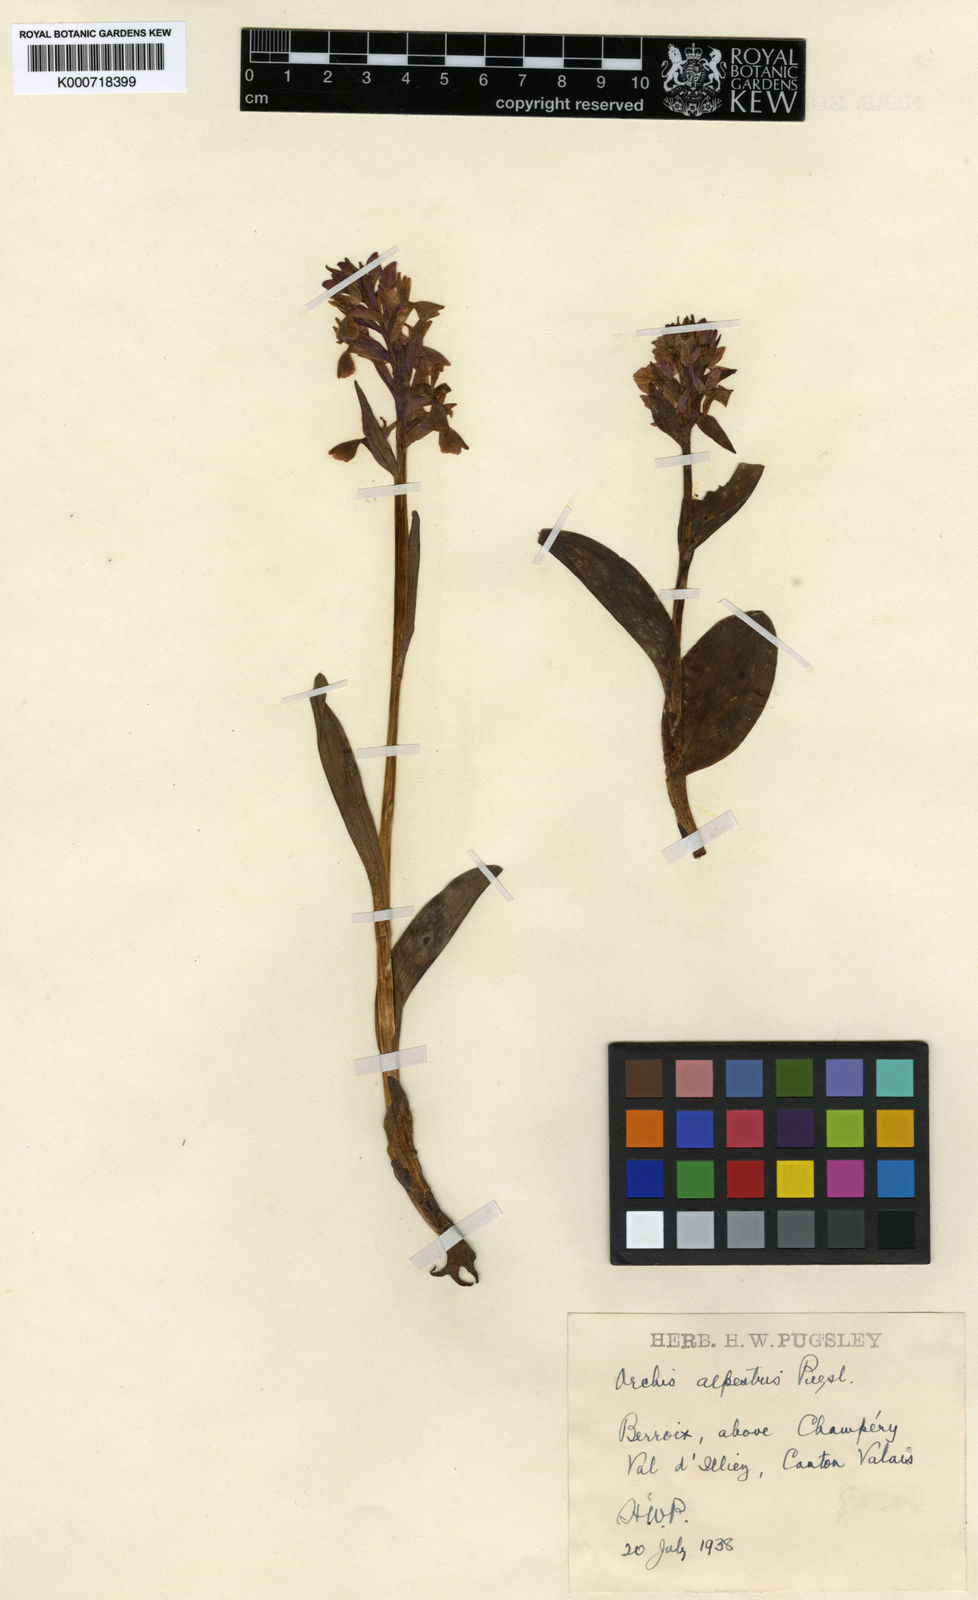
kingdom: Plantae
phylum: Tracheophyta
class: Liliopsida
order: Asparagales
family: Orchidaceae
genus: Dactylorhiza
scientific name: Dactylorhiza majalis
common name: Marsh orchid
